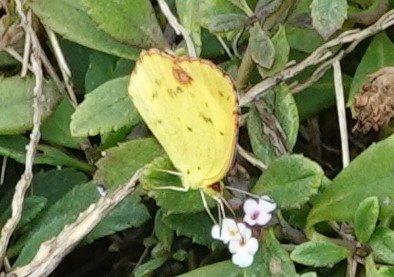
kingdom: Animalia
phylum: Arthropoda
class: Insecta
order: Lepidoptera
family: Pieridae
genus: Pyrisitia
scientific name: Pyrisitia lisa
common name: Little Yellow
